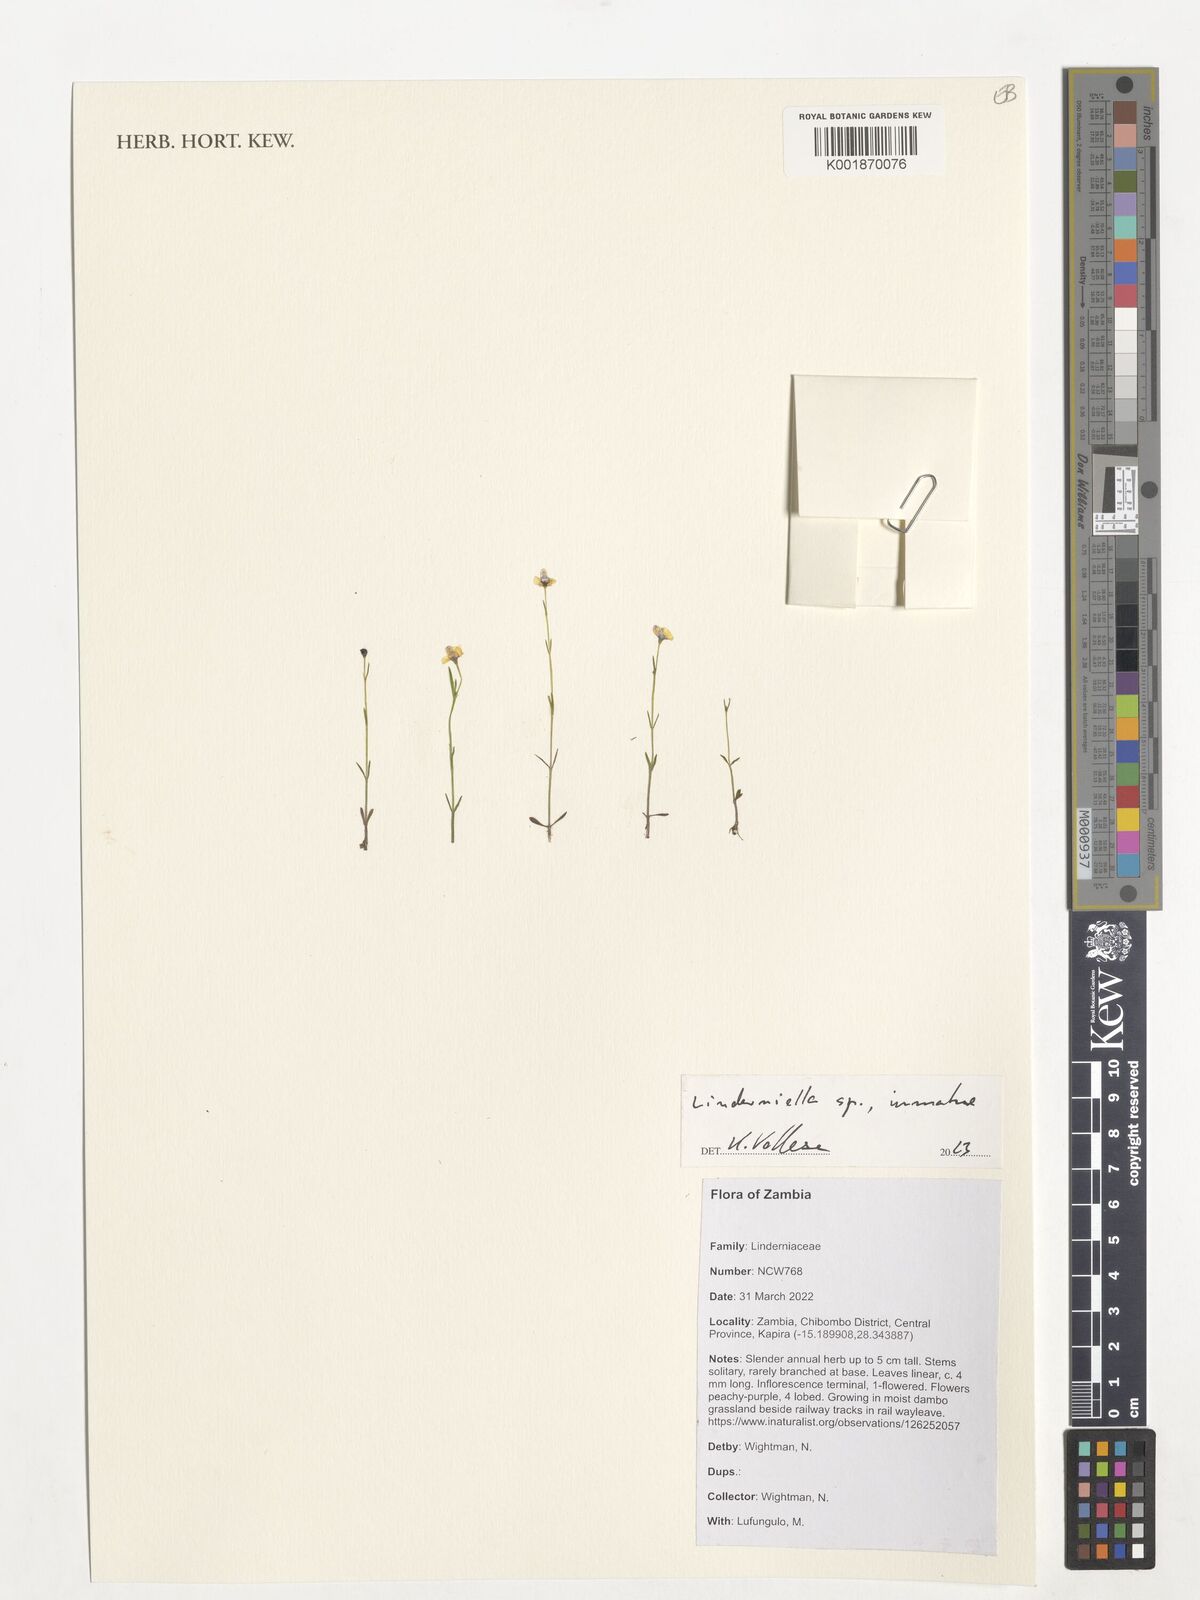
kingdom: Plantae
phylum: Tracheophyta
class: Magnoliopsida
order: Lamiales
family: Linderniaceae
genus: Linderniella
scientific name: Linderniella
